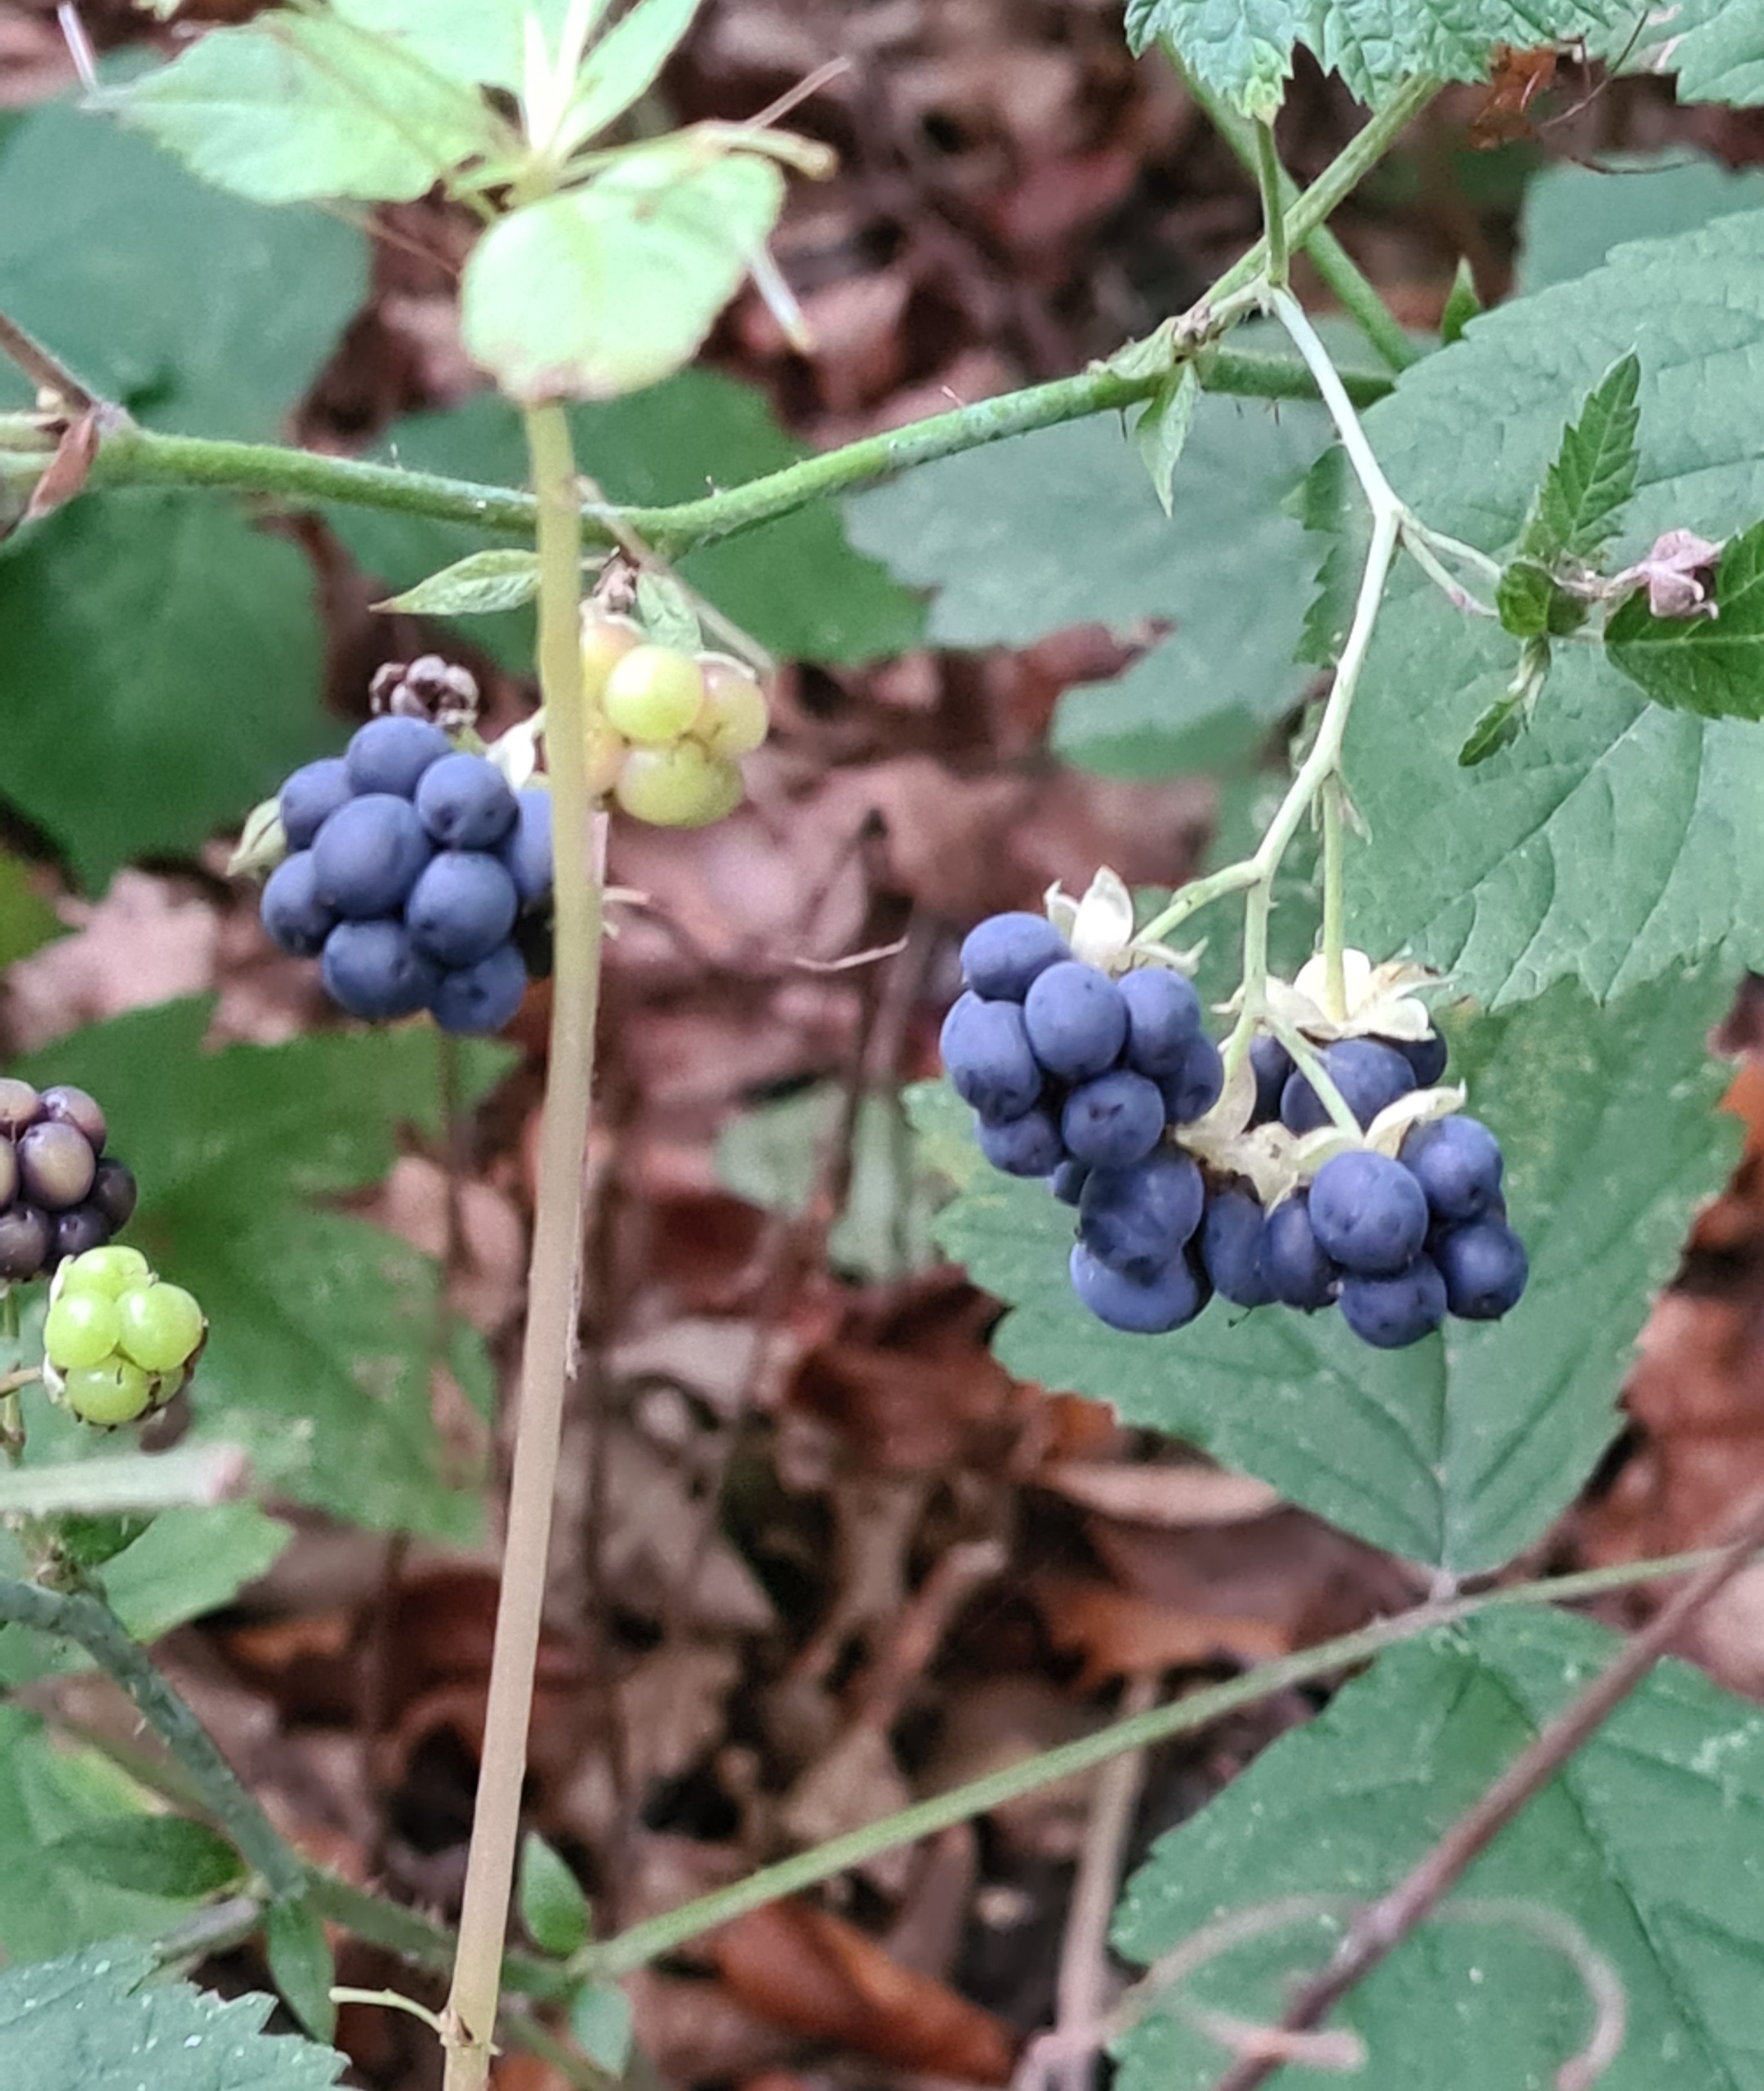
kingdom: Plantae
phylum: Tracheophyta
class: Magnoliopsida
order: Rosales
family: Rosaceae
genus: Rubus
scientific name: Rubus caesius
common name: Korbær
